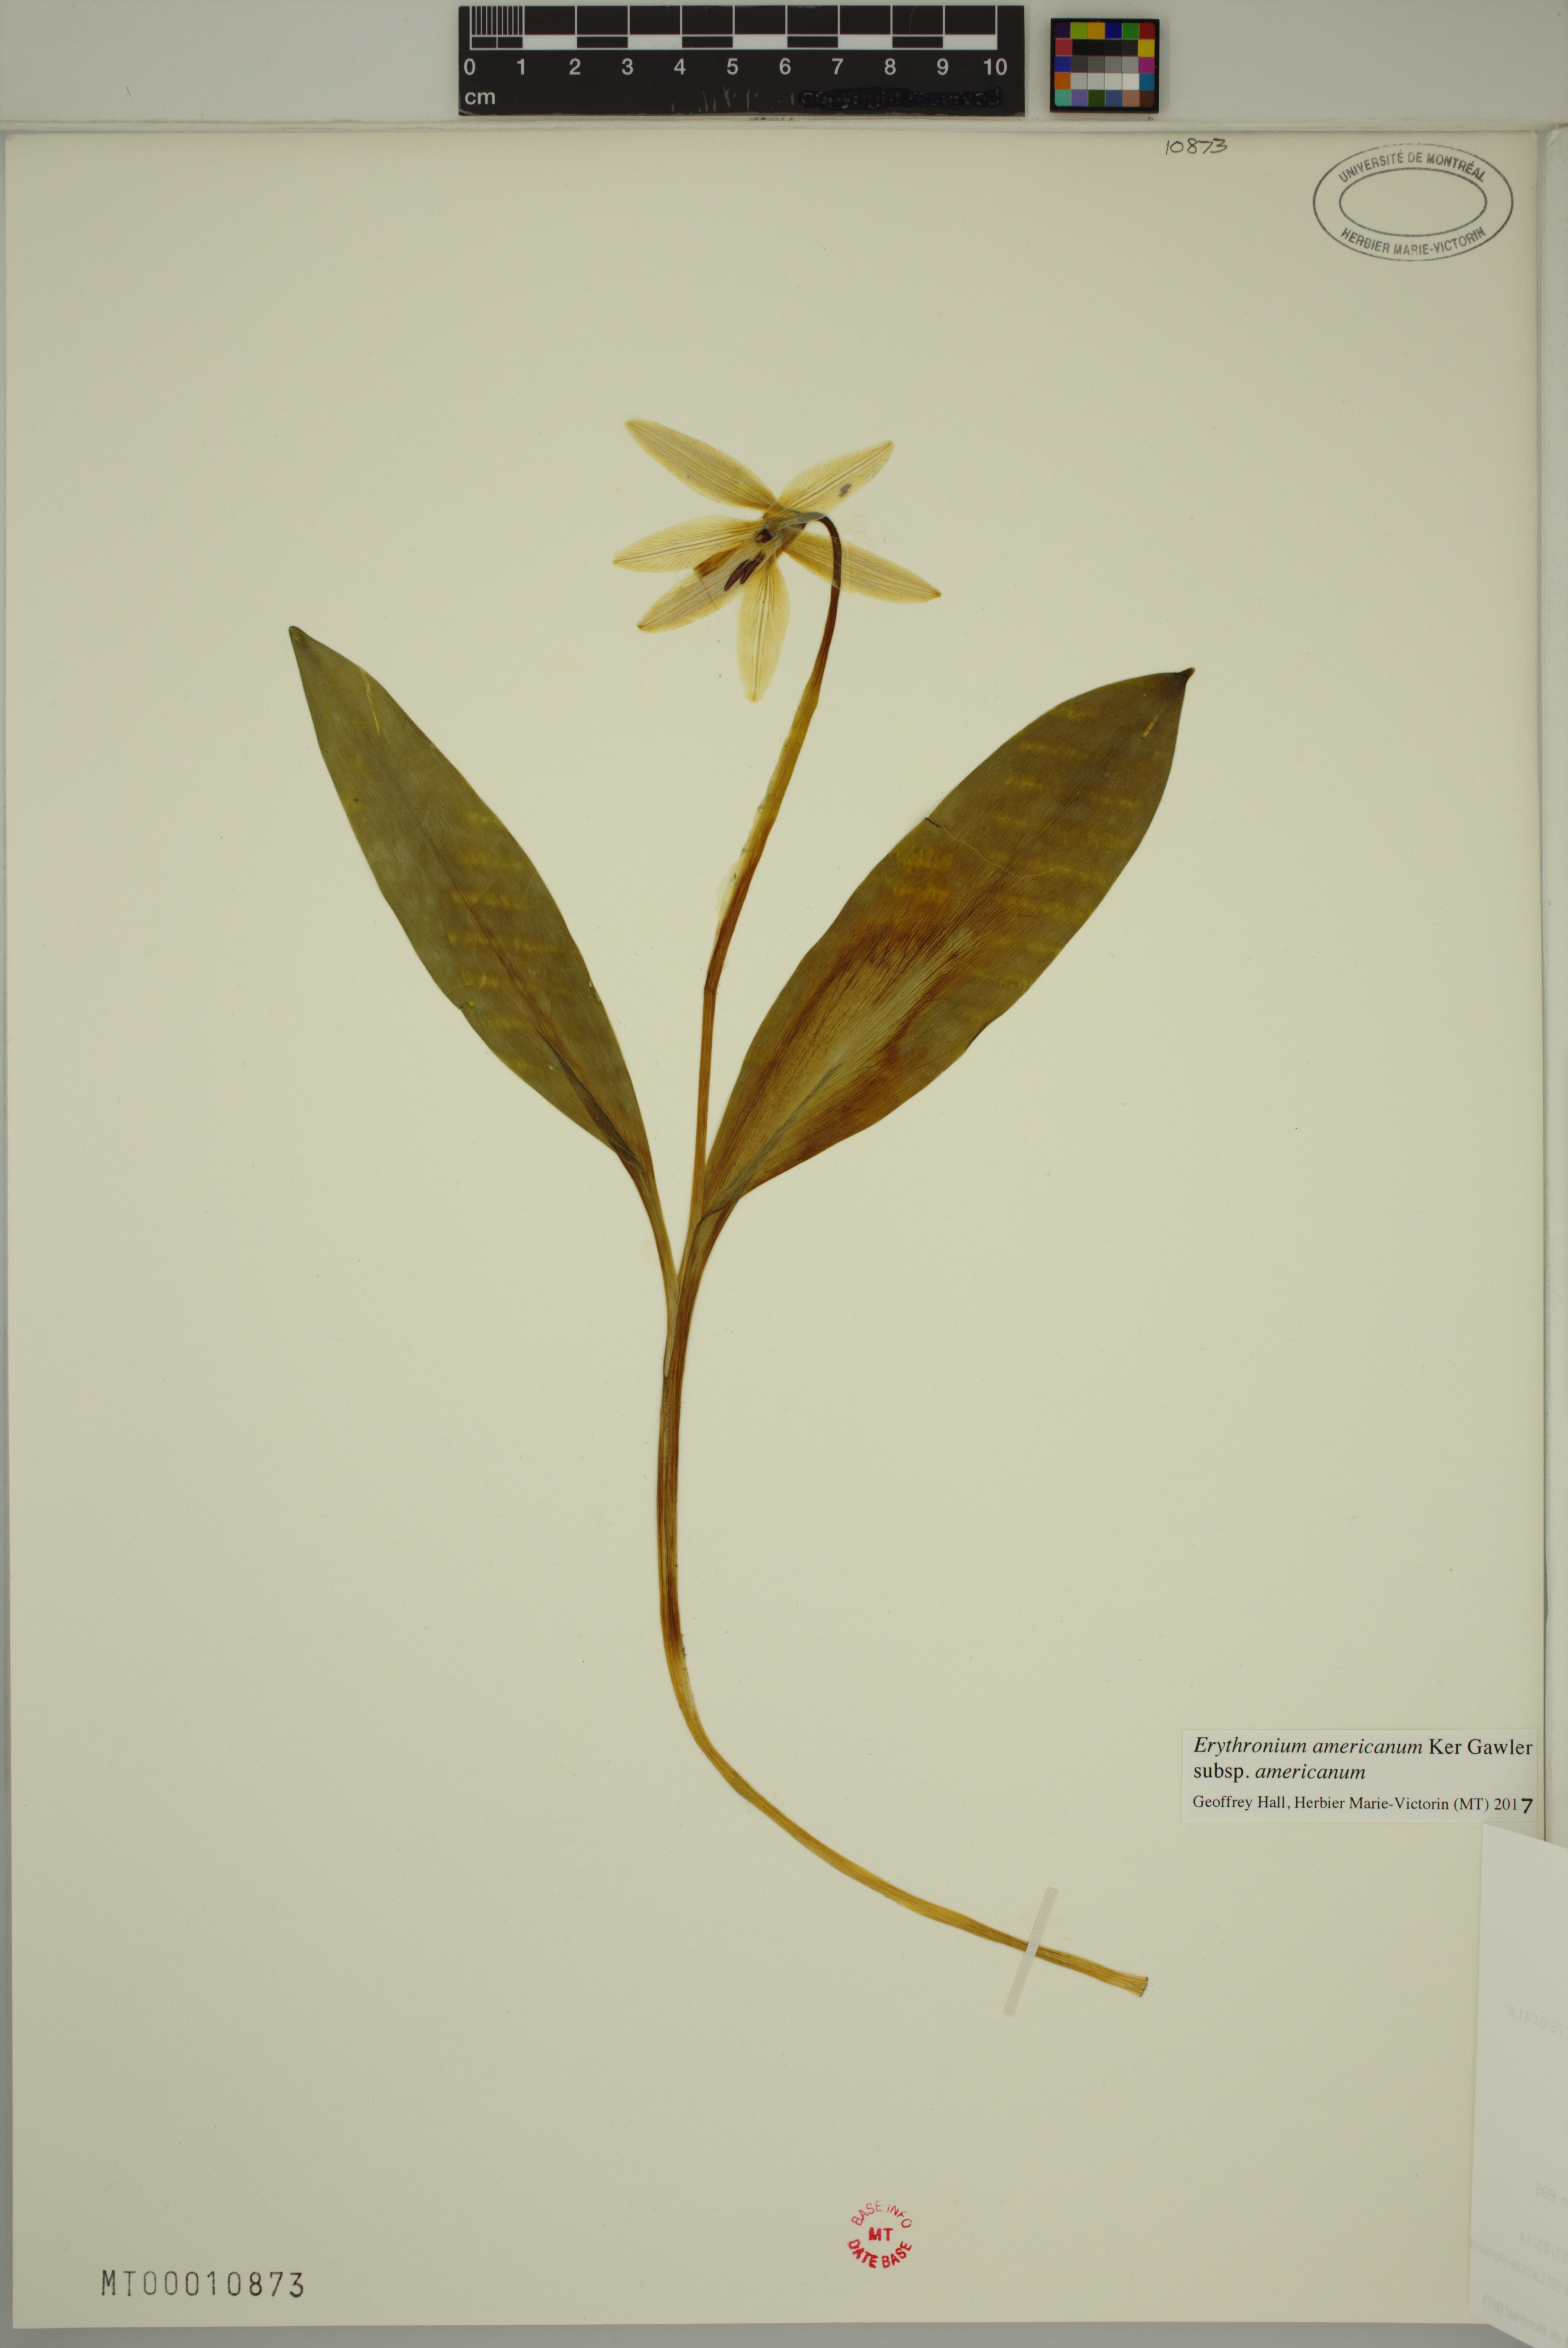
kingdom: Plantae
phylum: Tracheophyta
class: Liliopsida
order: Liliales
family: Liliaceae
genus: Erythronium
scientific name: Erythronium americanum
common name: Yellow adder's-tongue
